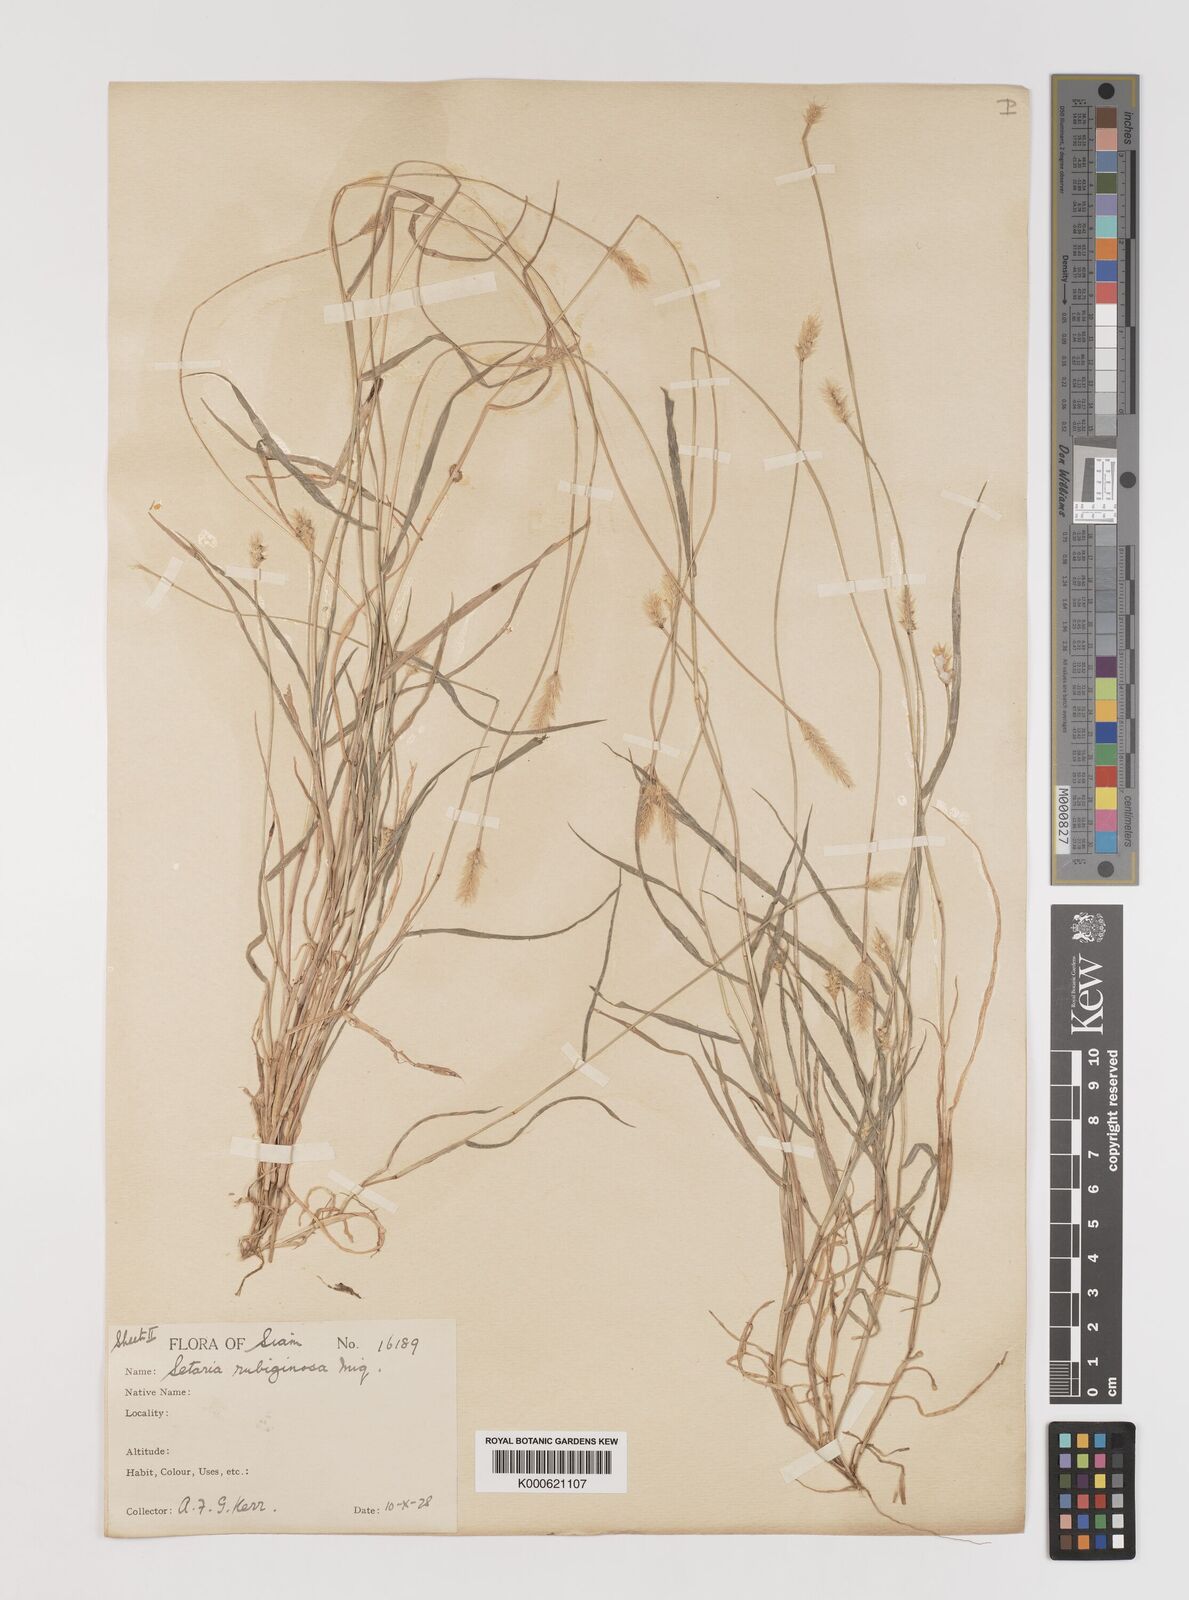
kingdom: Plantae
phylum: Tracheophyta
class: Liliopsida
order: Poales
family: Poaceae
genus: Setaria
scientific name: Setaria pumila
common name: Yellow bristle-grass
